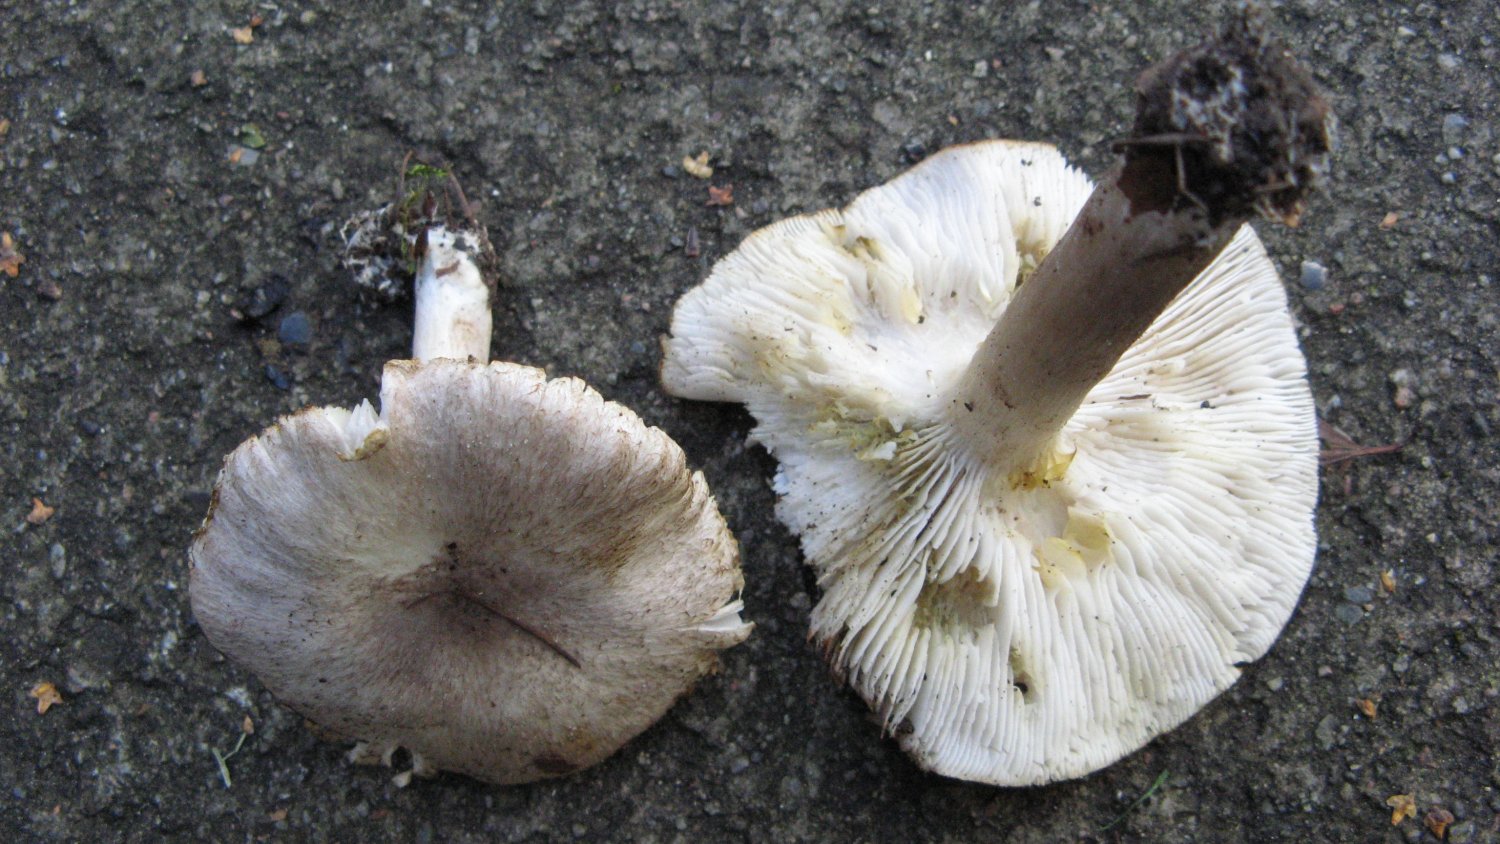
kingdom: Fungi
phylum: Basidiomycota
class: Agaricomycetes
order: Agaricales
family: Tricholomataceae
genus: Tricholoma
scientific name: Tricholoma scalpturatum
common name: gulplettet ridderhat
